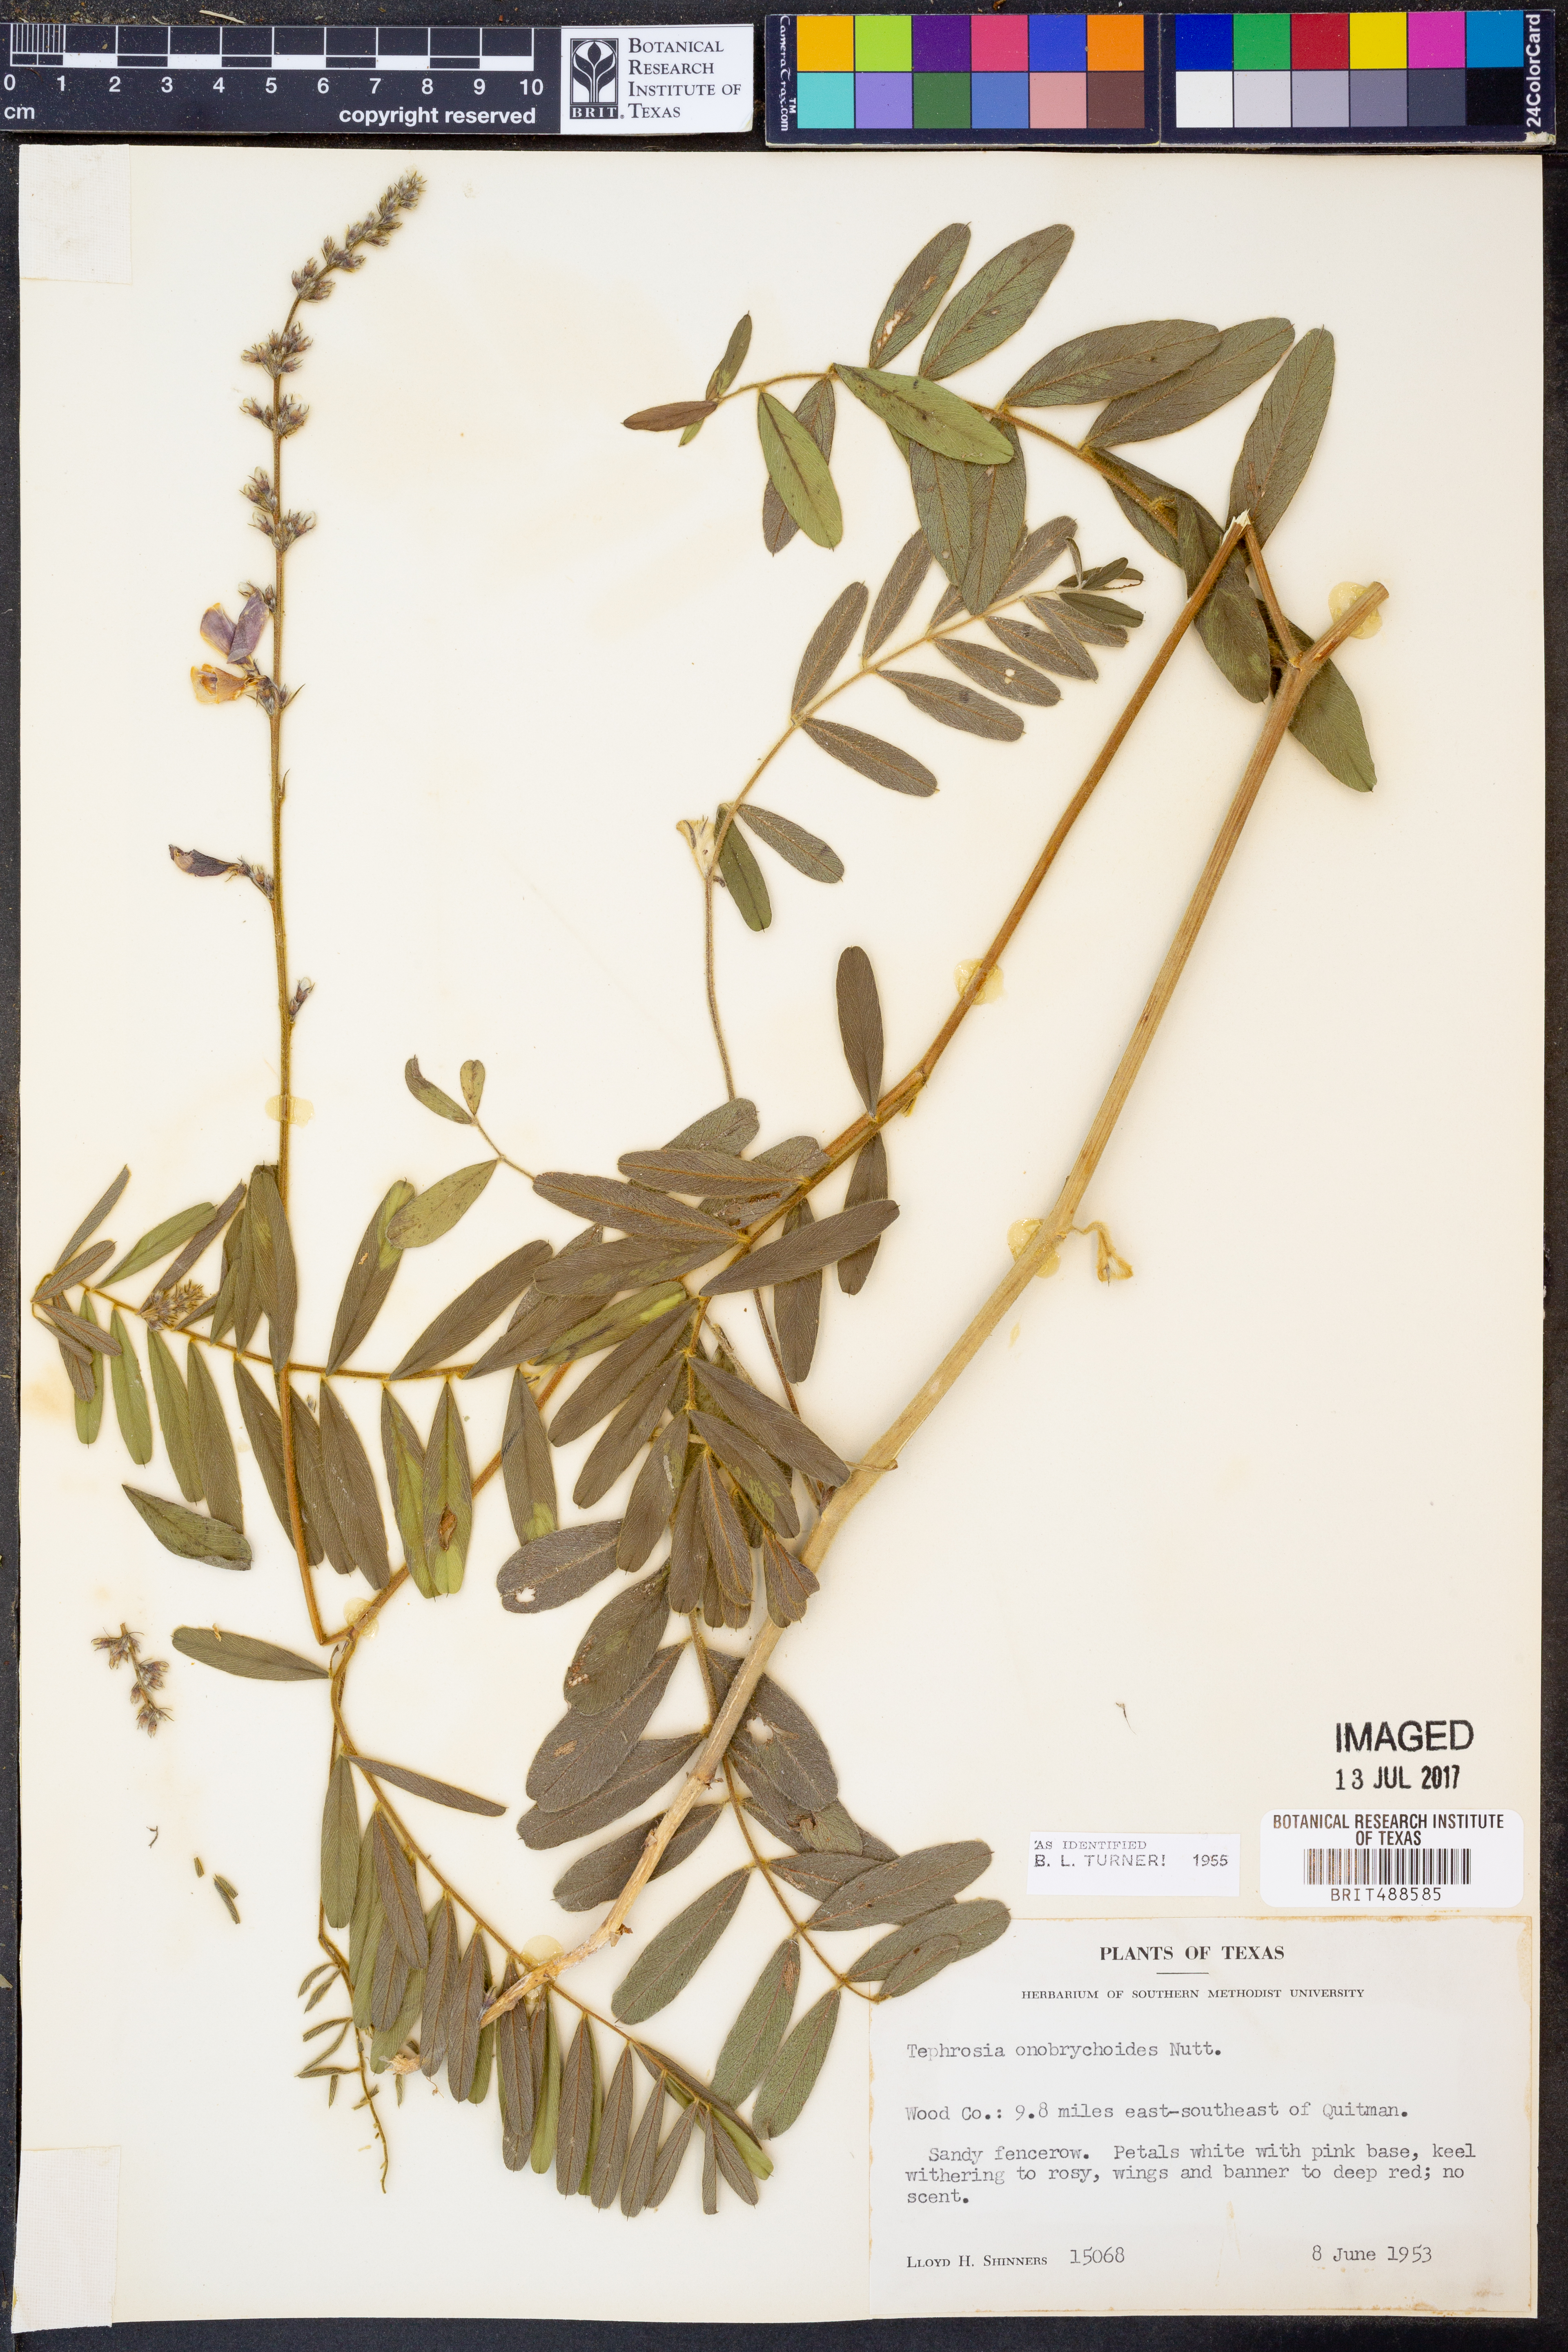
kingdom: Plantae
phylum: Tracheophyta
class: Magnoliopsida
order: Fabales
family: Fabaceae
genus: Tephrosia
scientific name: Tephrosia onobrychoides
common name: Multi-bloom hoary-pea
